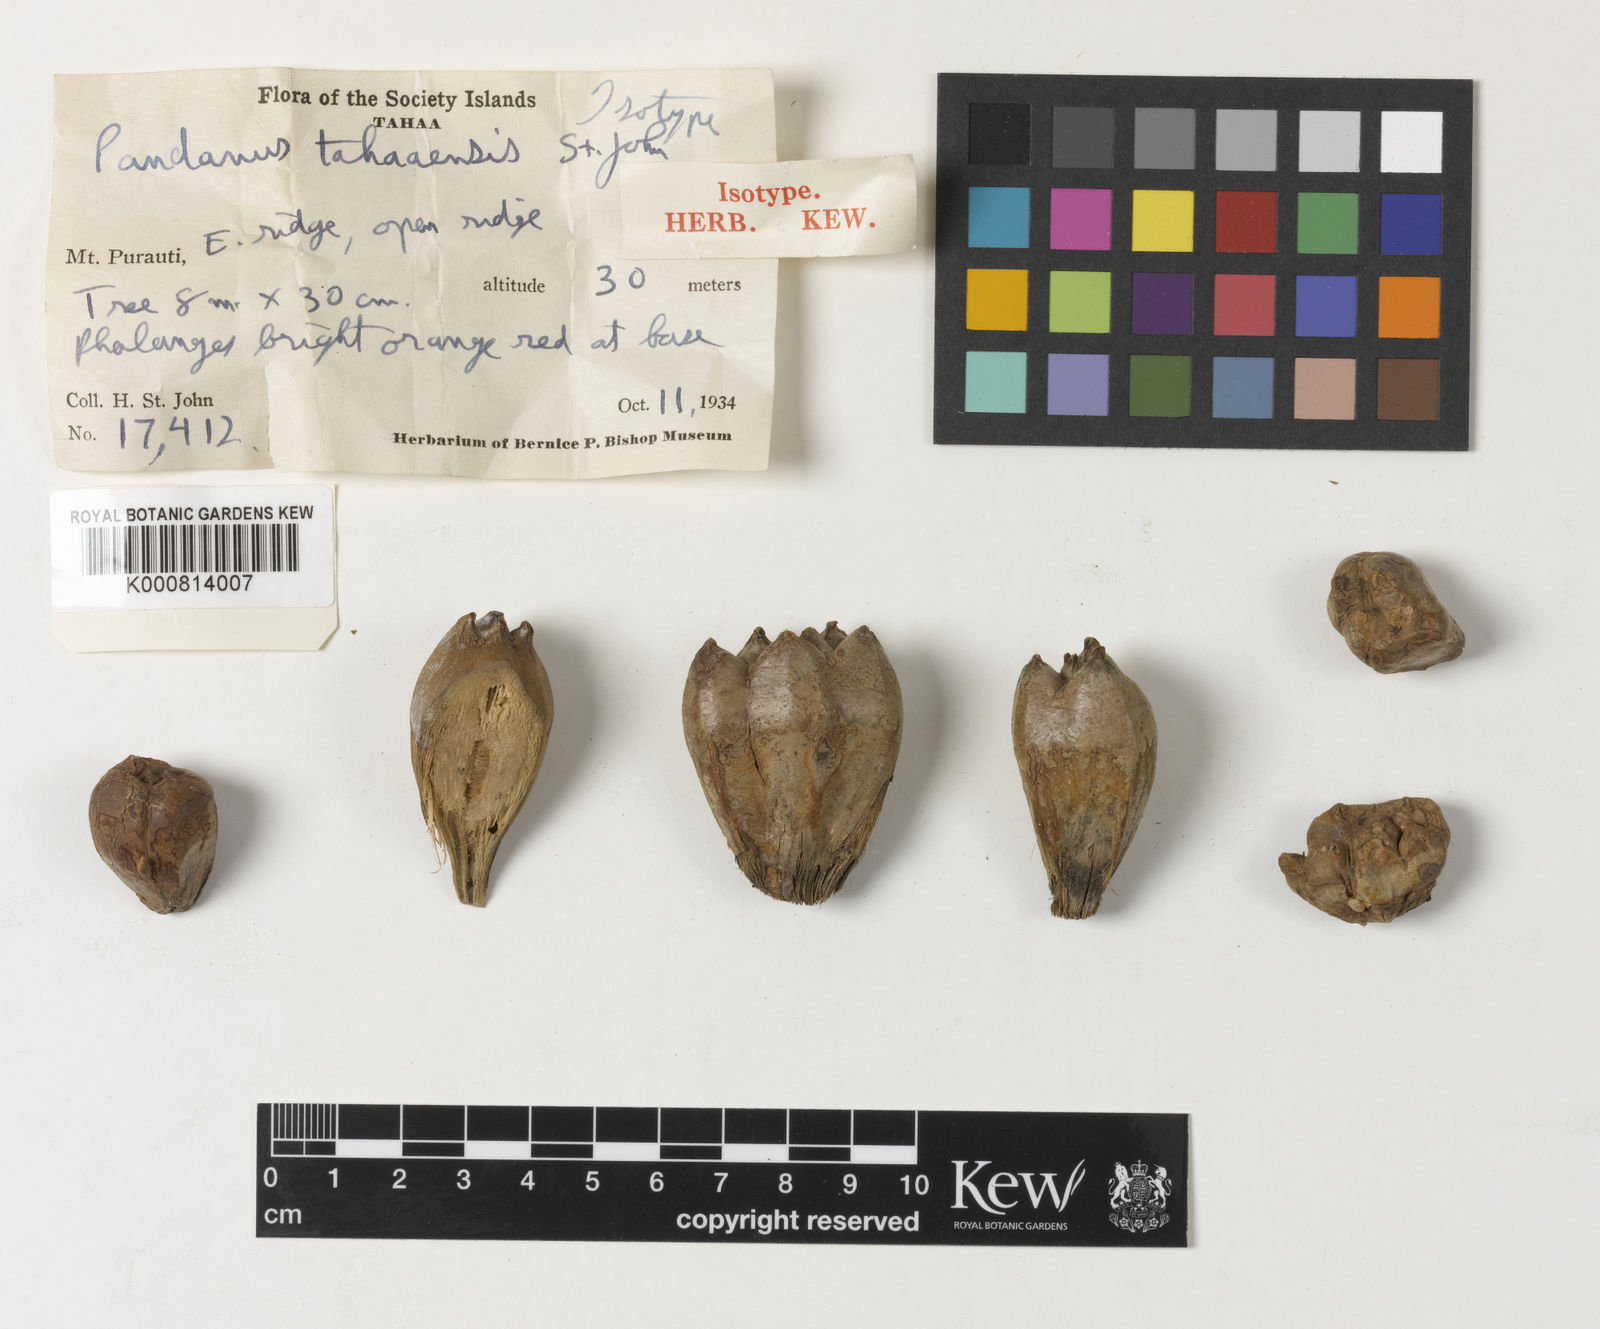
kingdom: Plantae
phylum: Tracheophyta
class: Liliopsida
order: Pandanales
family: Pandanaceae
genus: Pandanus
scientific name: Pandanus tectorius
